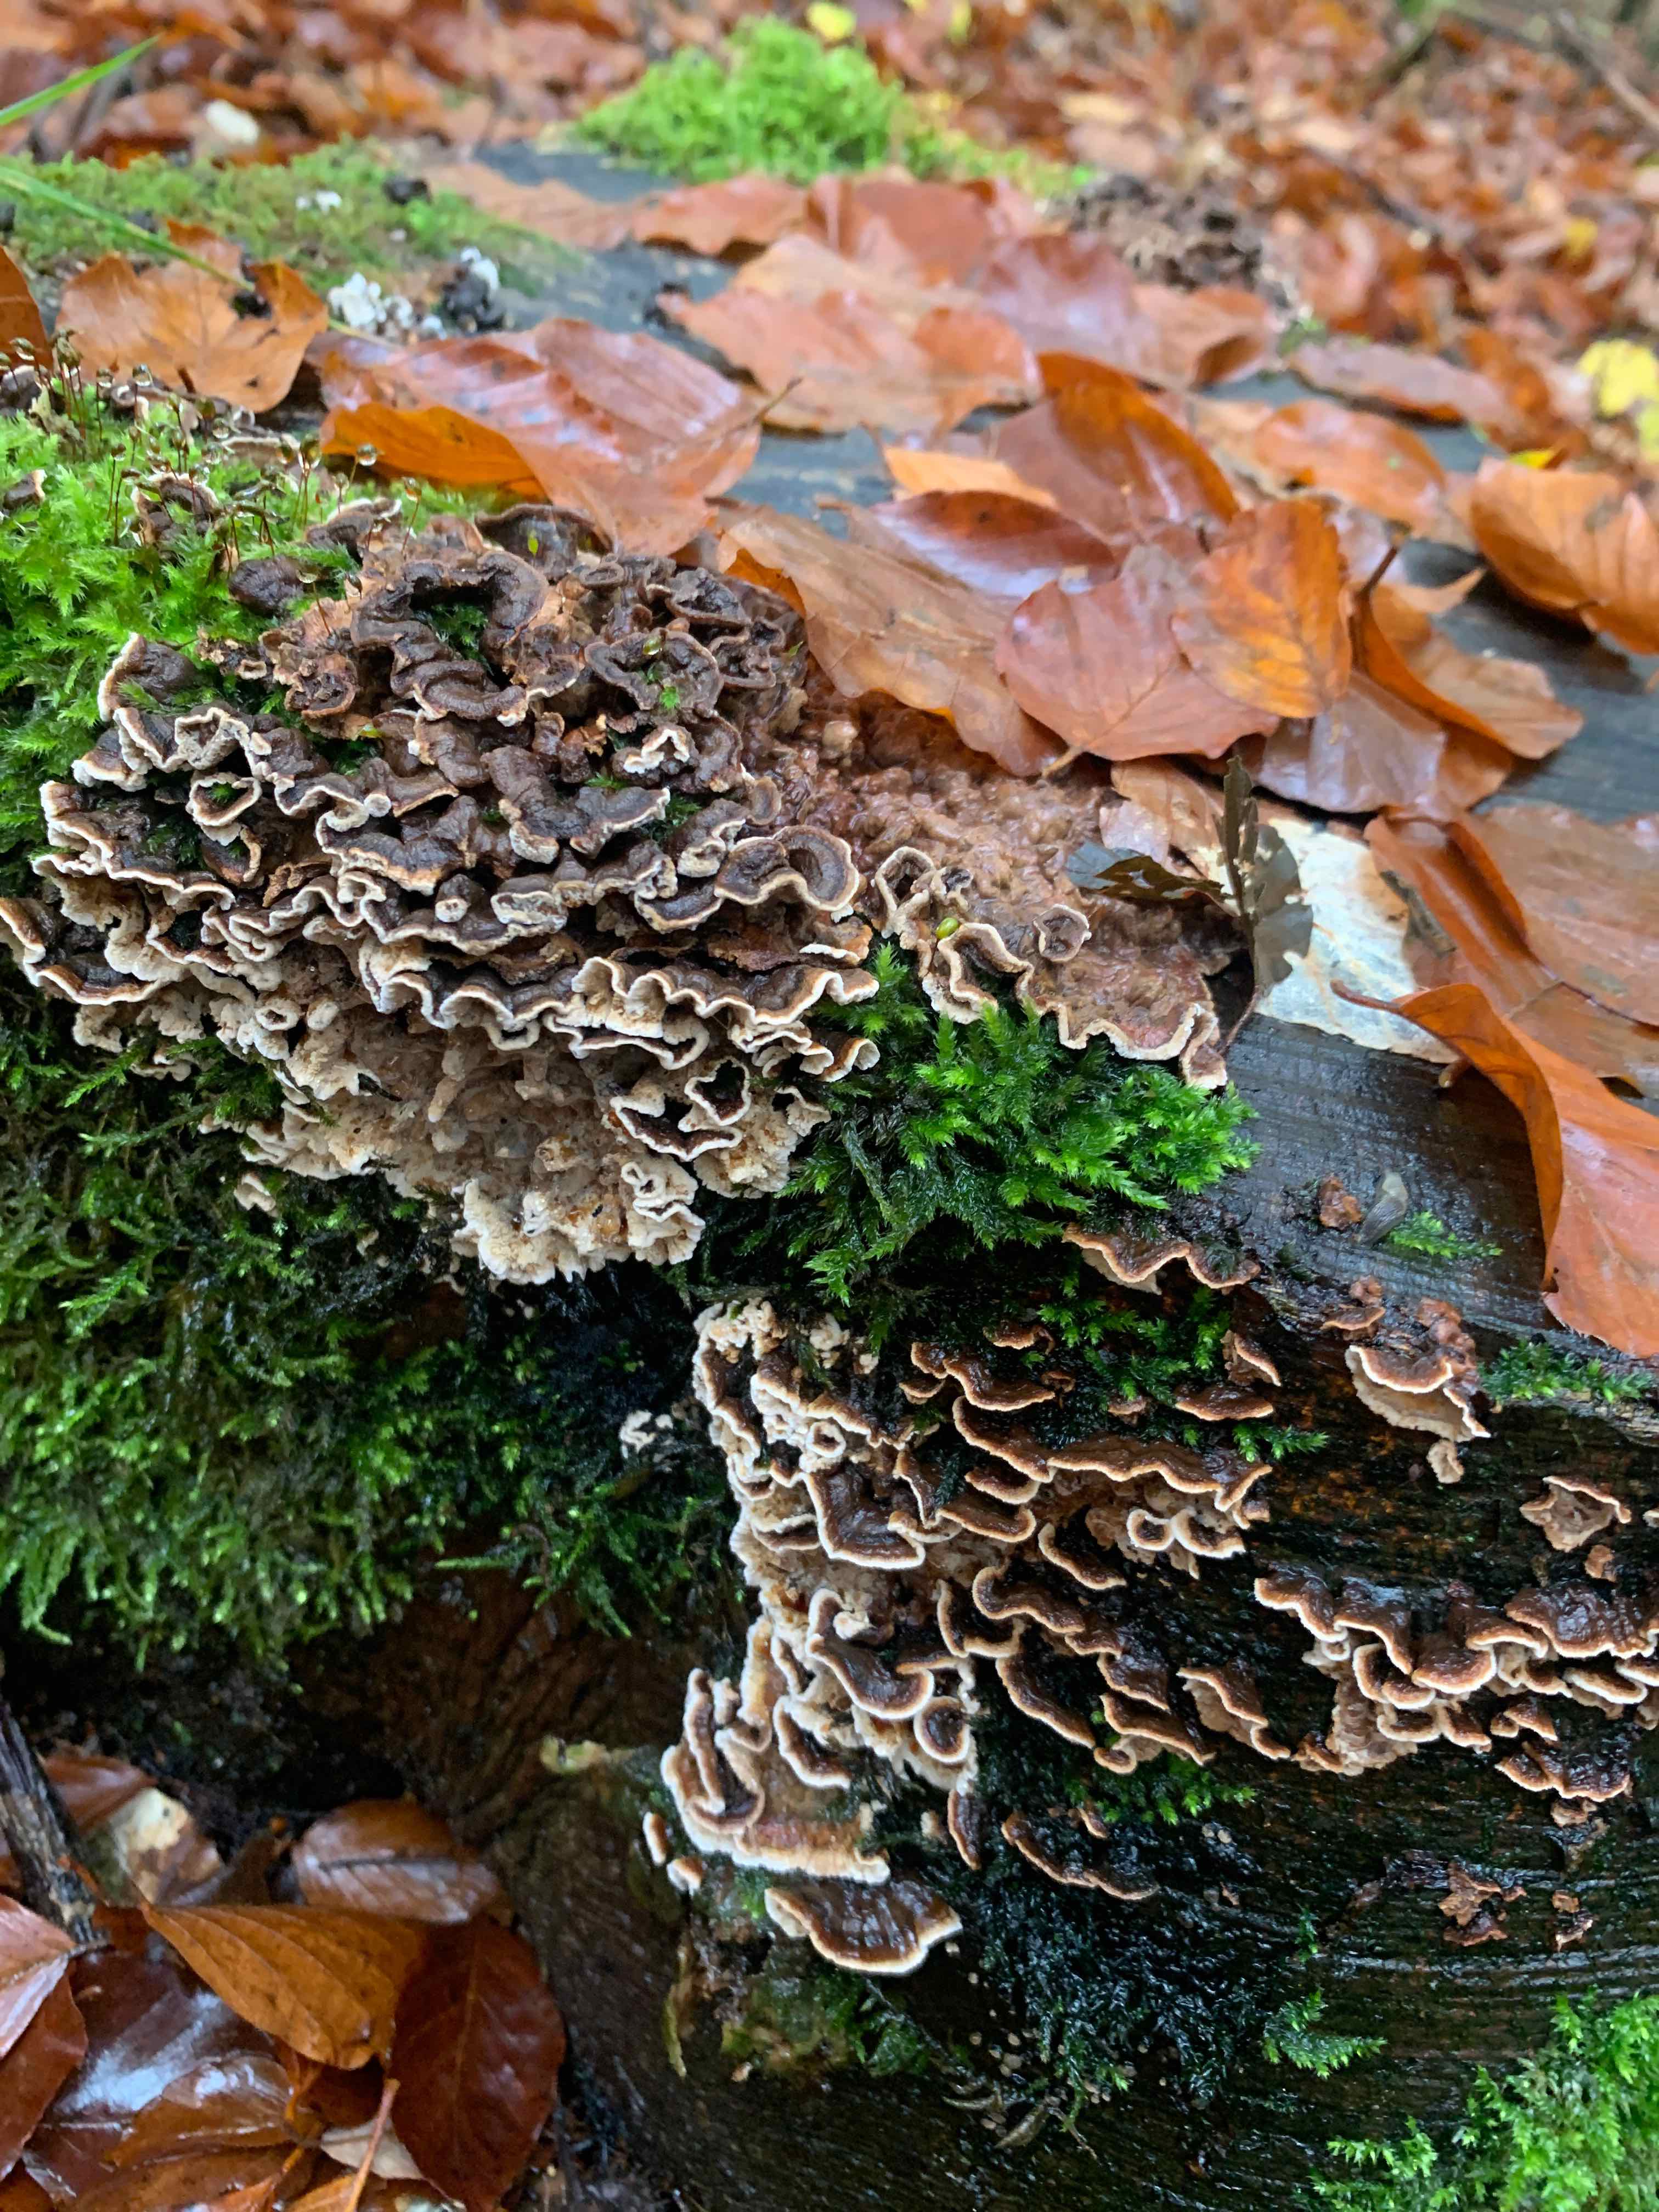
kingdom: Fungi
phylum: Basidiomycota
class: Agaricomycetes
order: Russulales
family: Hericiaceae
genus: Laxitextum
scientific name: Laxitextum bicolor
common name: tvefarvet filtskind
